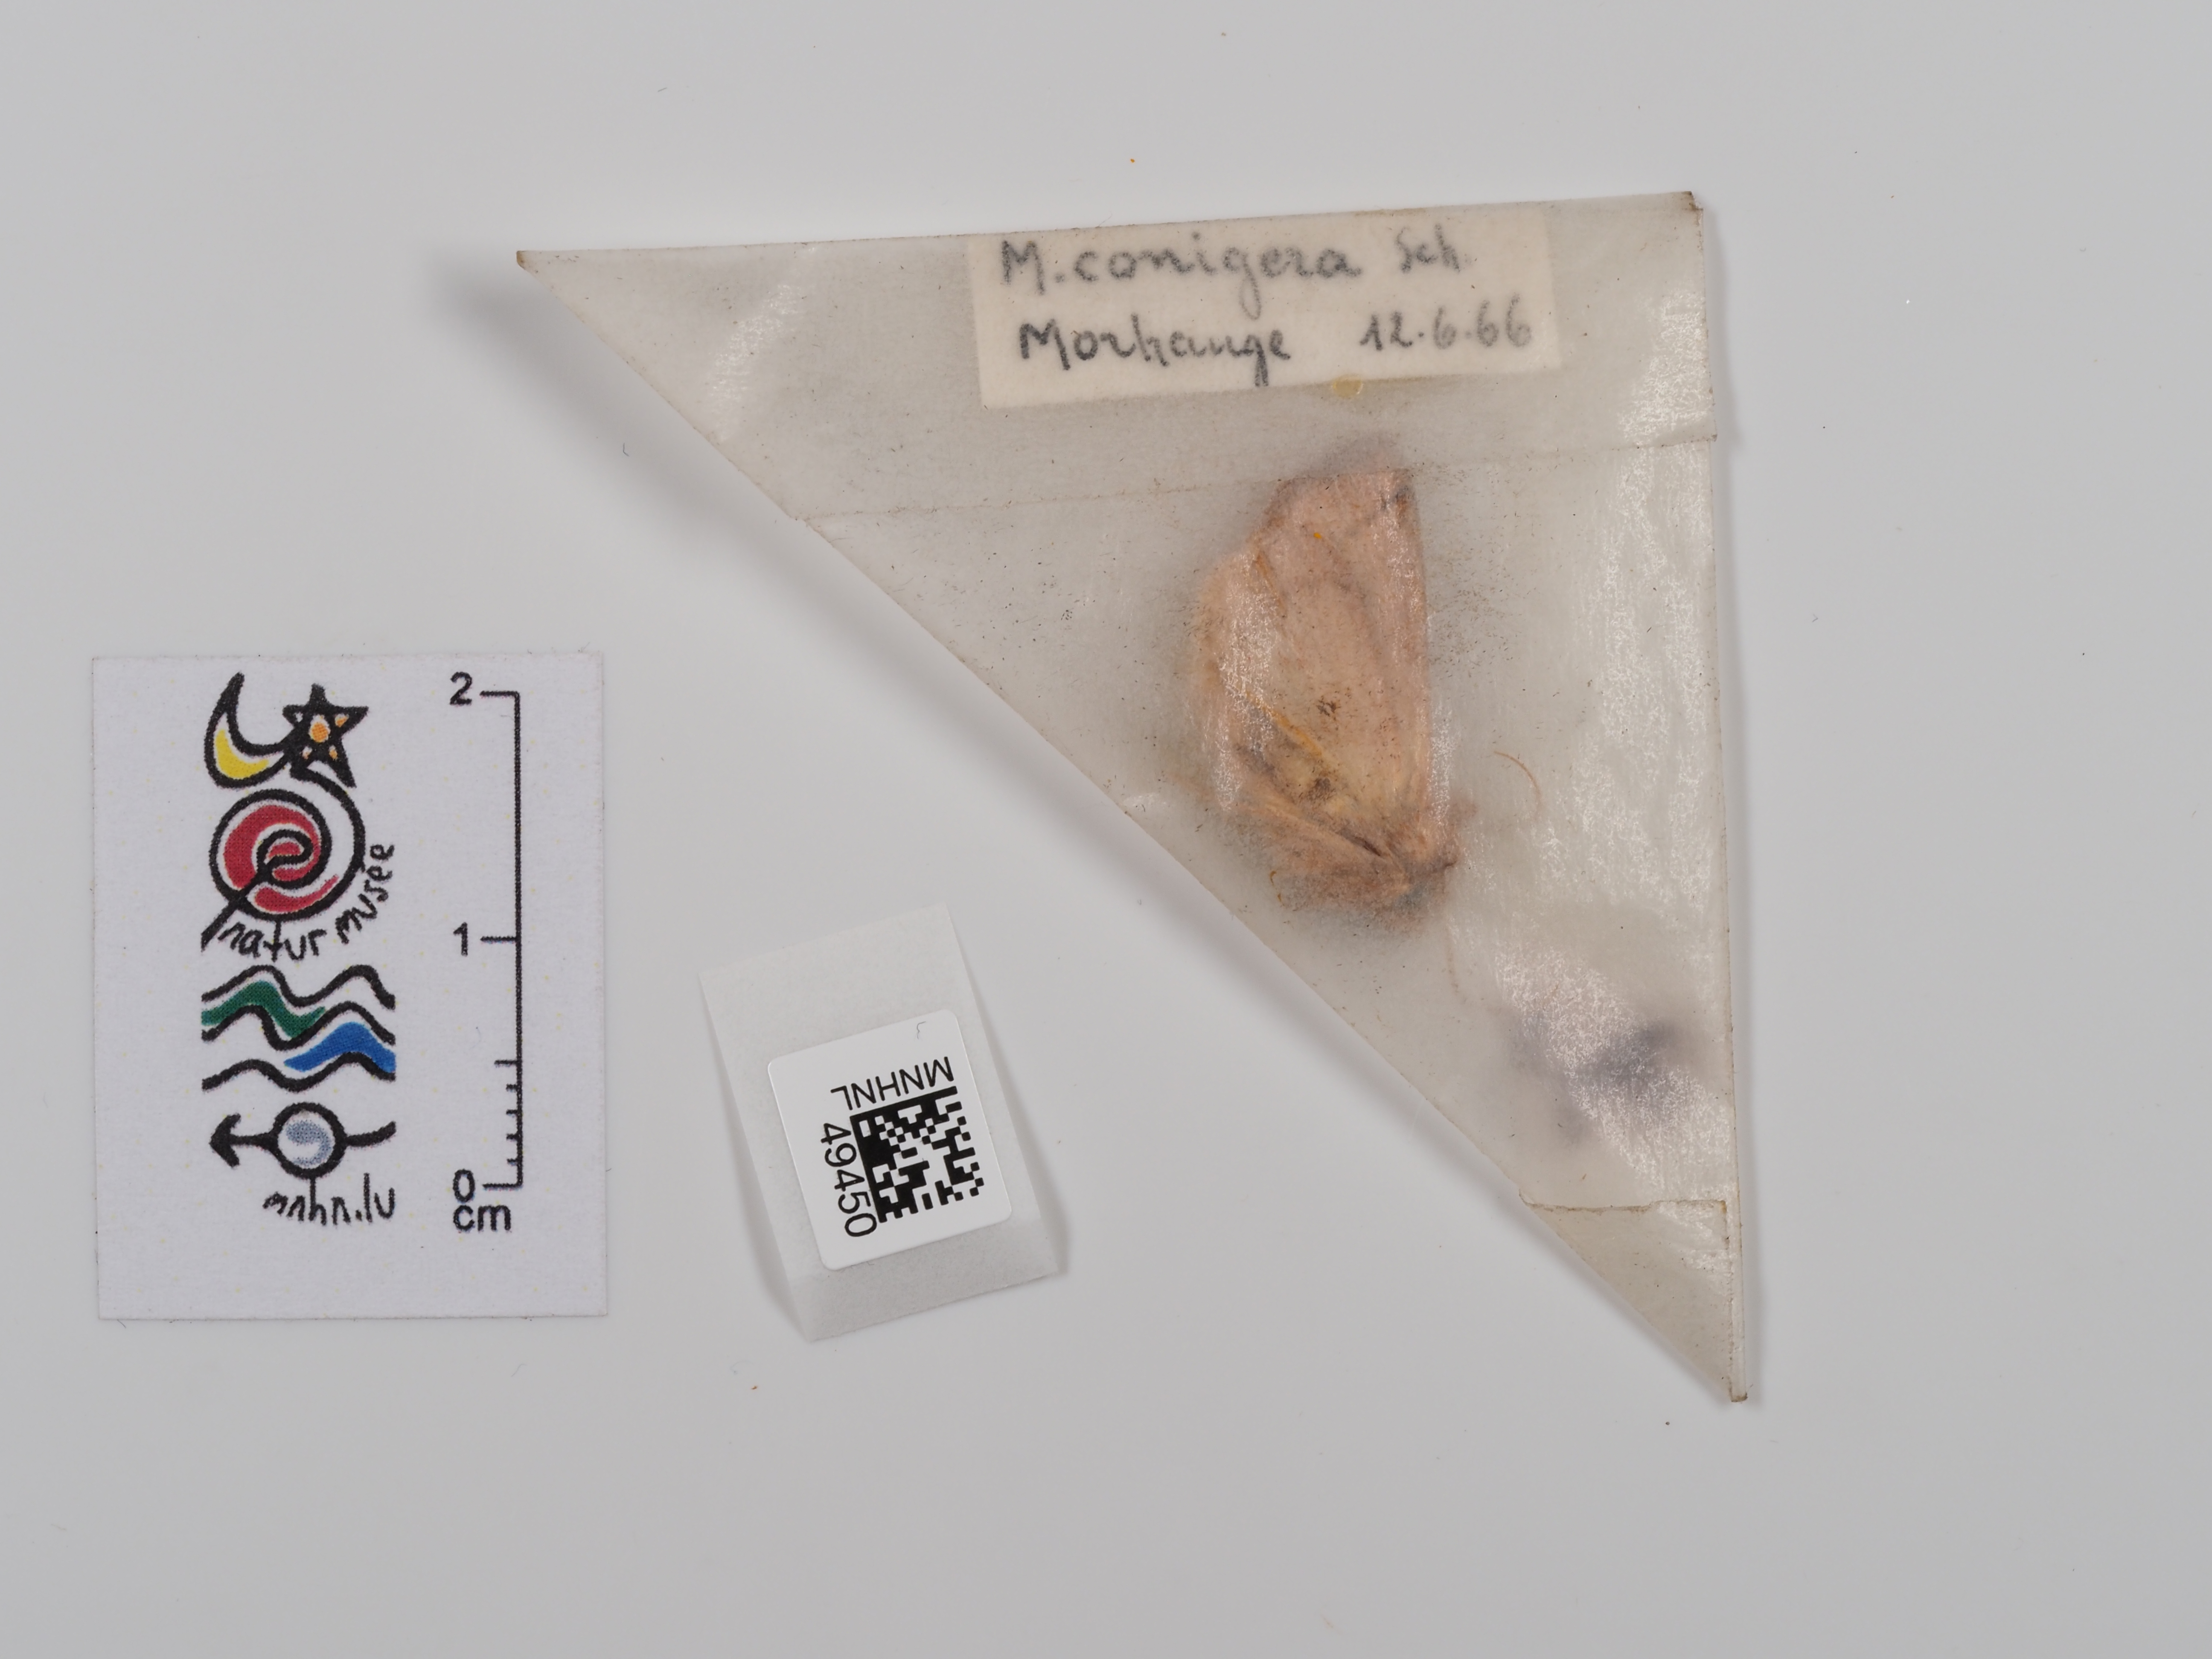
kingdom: Animalia
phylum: Arthropoda
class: Insecta
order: Lepidoptera
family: Noctuidae
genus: Mythimna
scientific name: Mythimna conigera
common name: Brown-line bright-eye
